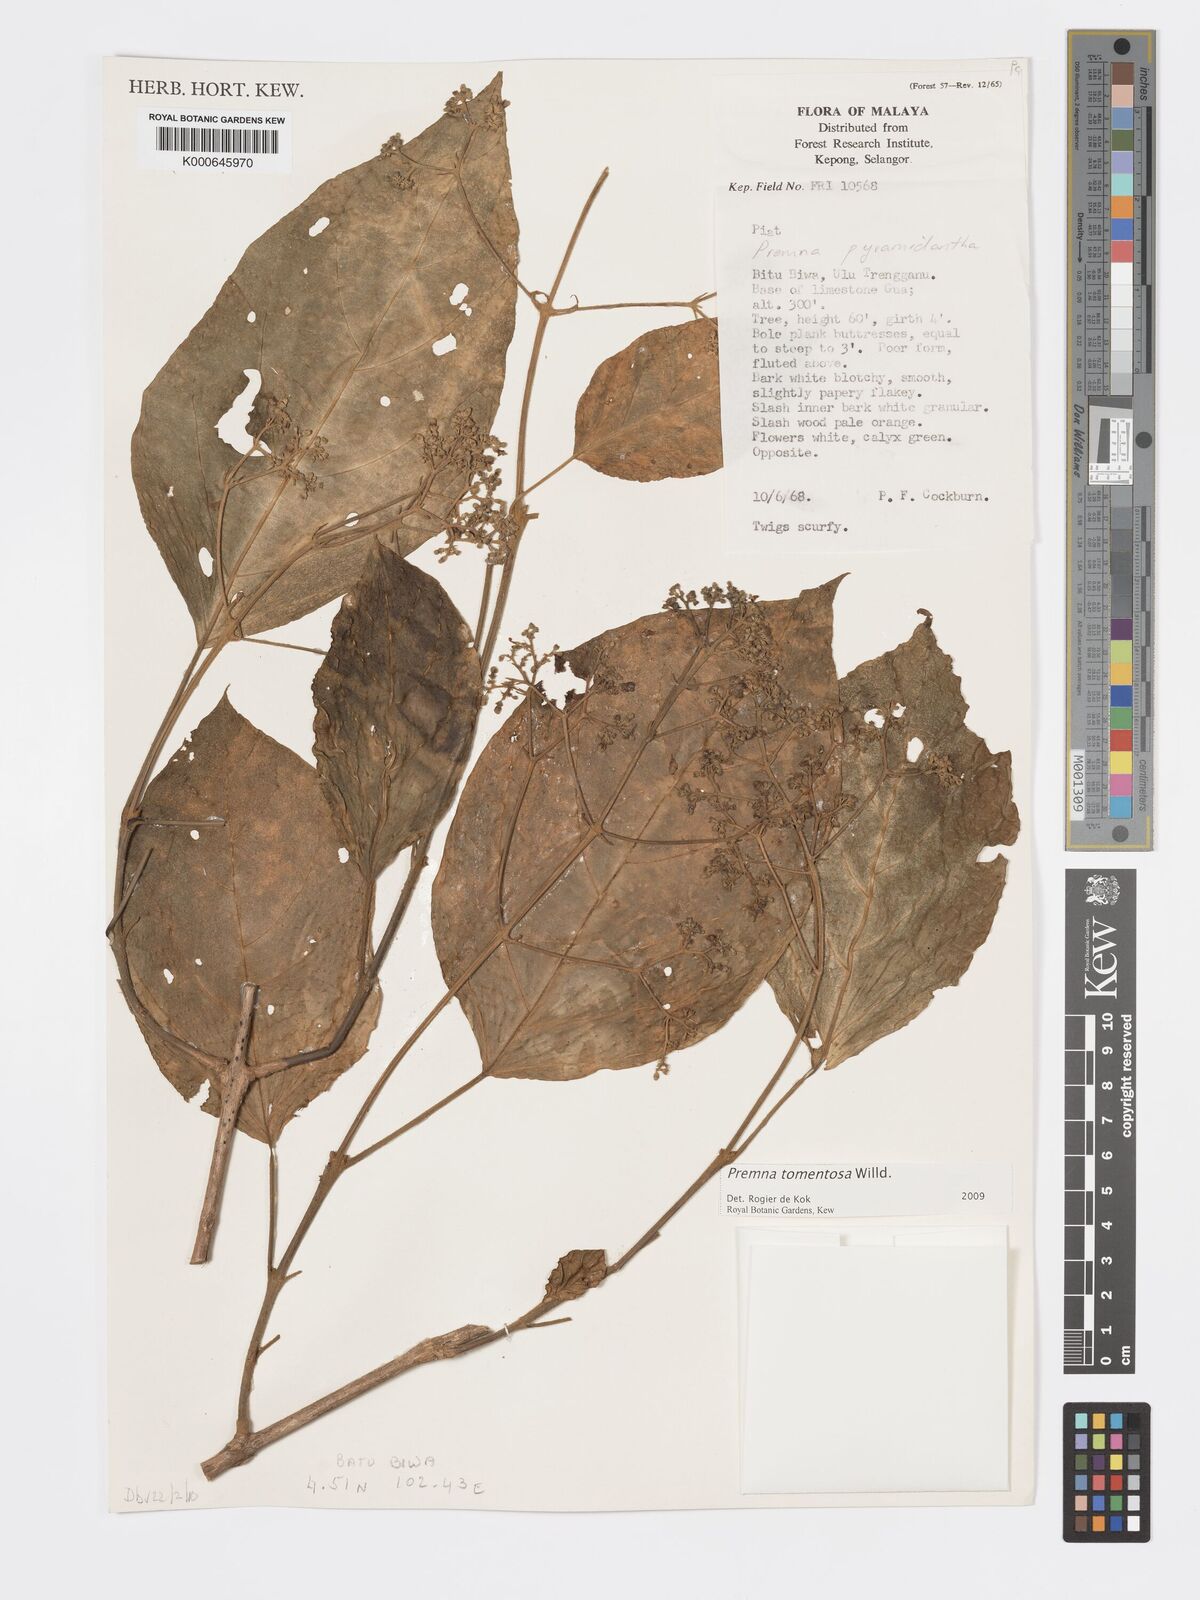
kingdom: Plantae
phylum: Tracheophyta
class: Magnoliopsida
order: Lamiales
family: Lamiaceae
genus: Premna
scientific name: Premna tomentosa
